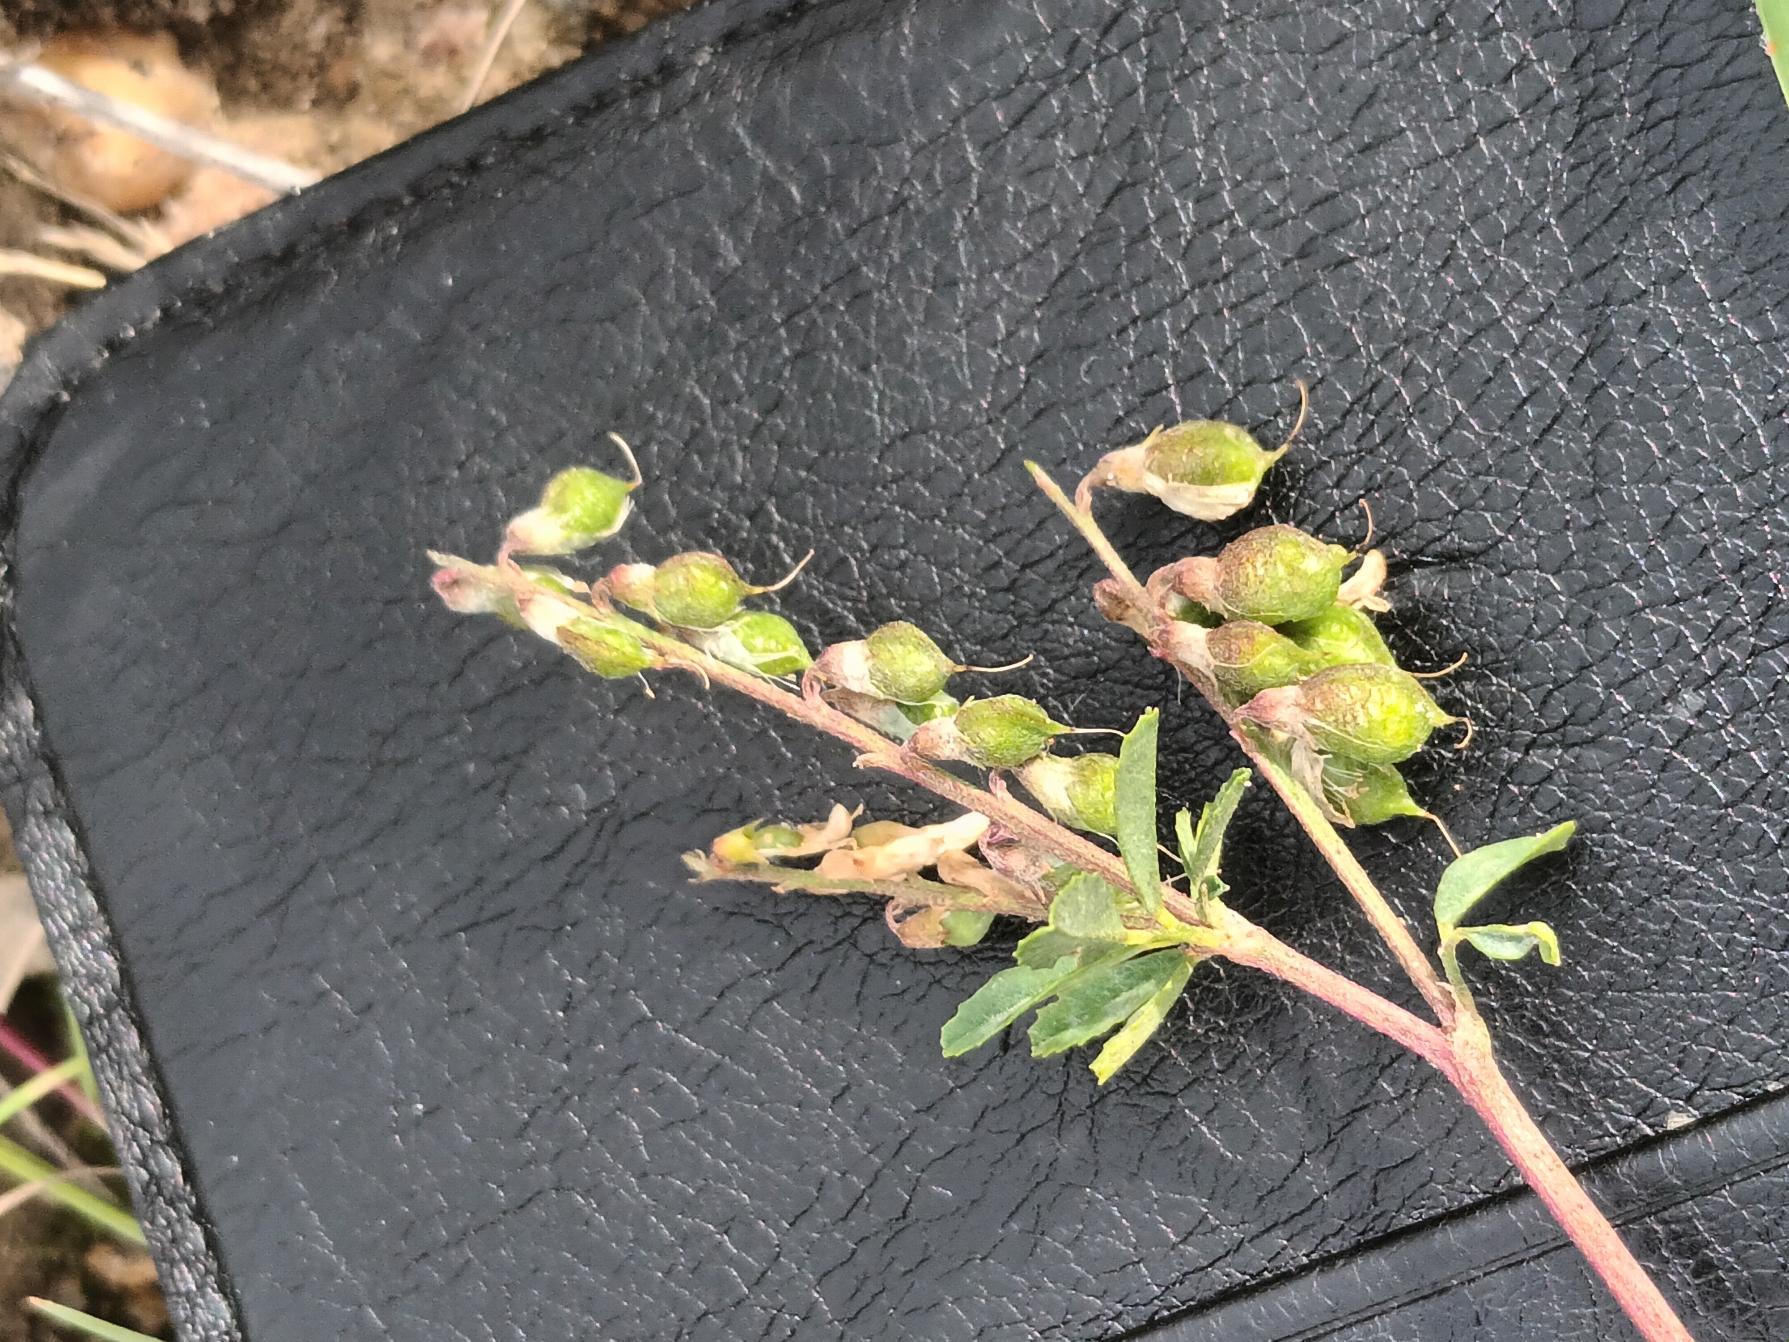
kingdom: Plantae
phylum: Tracheophyta
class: Magnoliopsida
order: Fabales
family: Fabaceae
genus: Melilotus
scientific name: Melilotus altissimus
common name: Høj stenkløver
